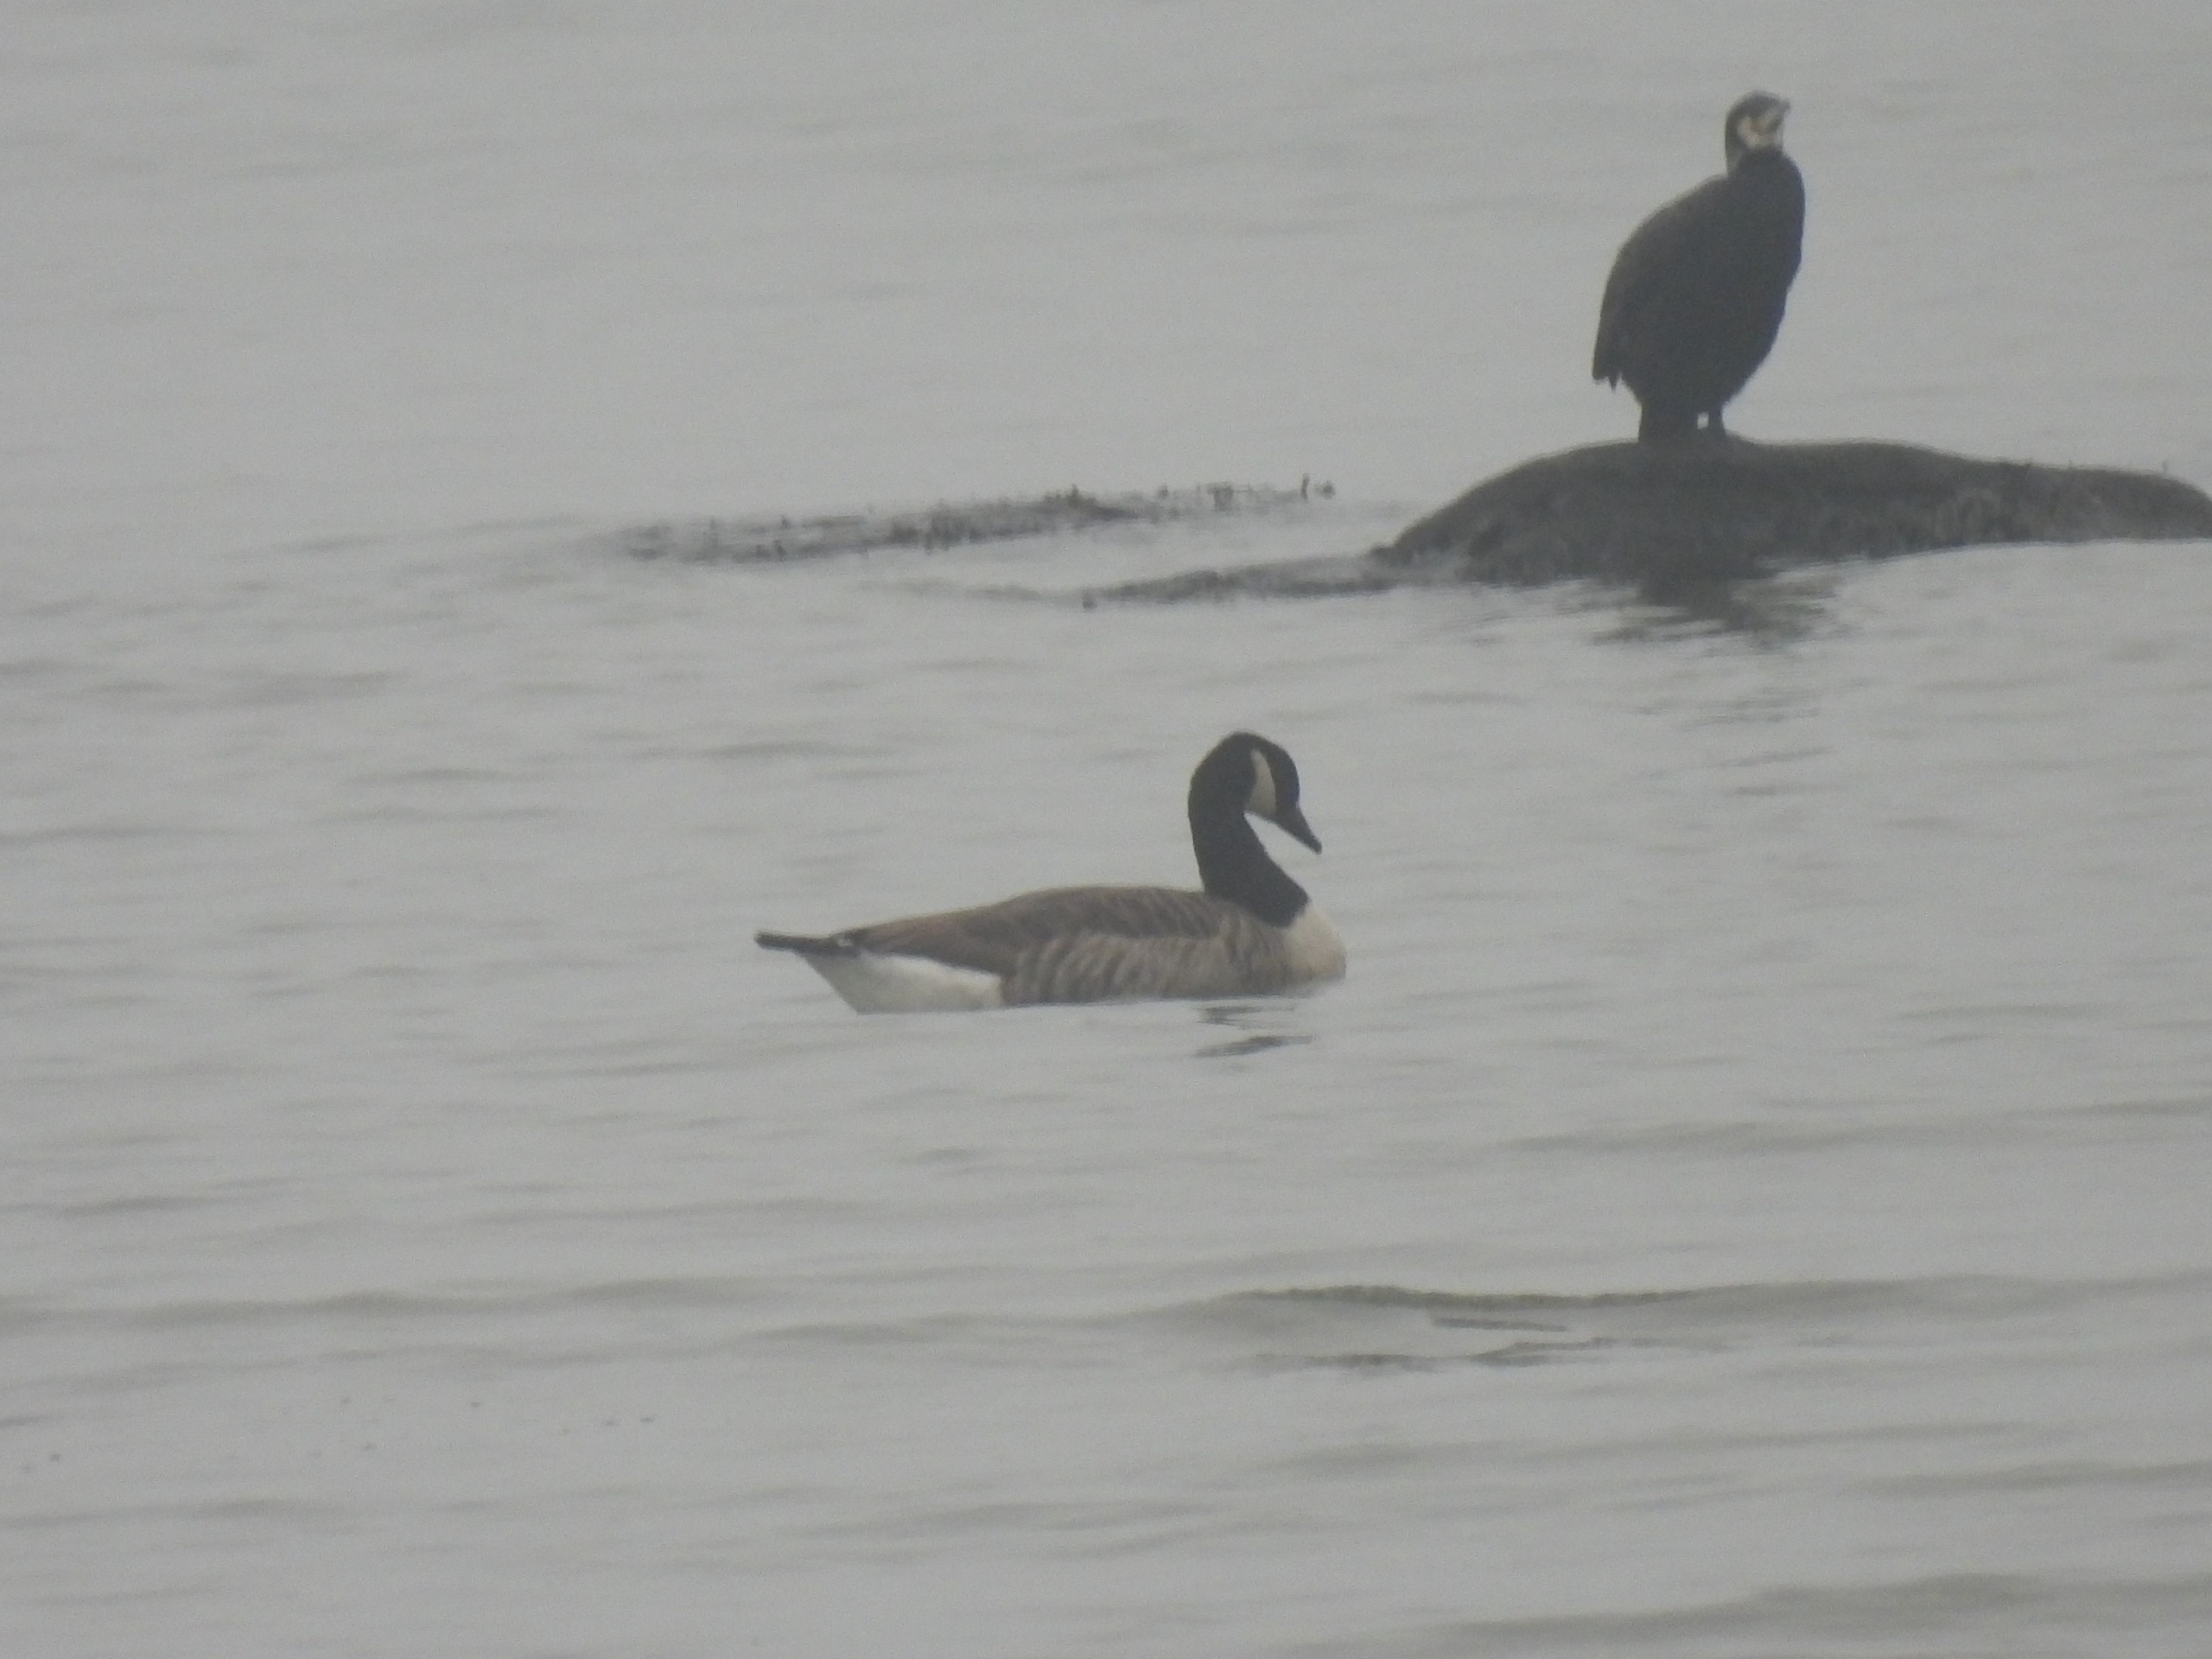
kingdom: Animalia
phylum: Chordata
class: Aves
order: Anseriformes
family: Anatidae
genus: Branta
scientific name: Branta canadensis
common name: Canadagås
